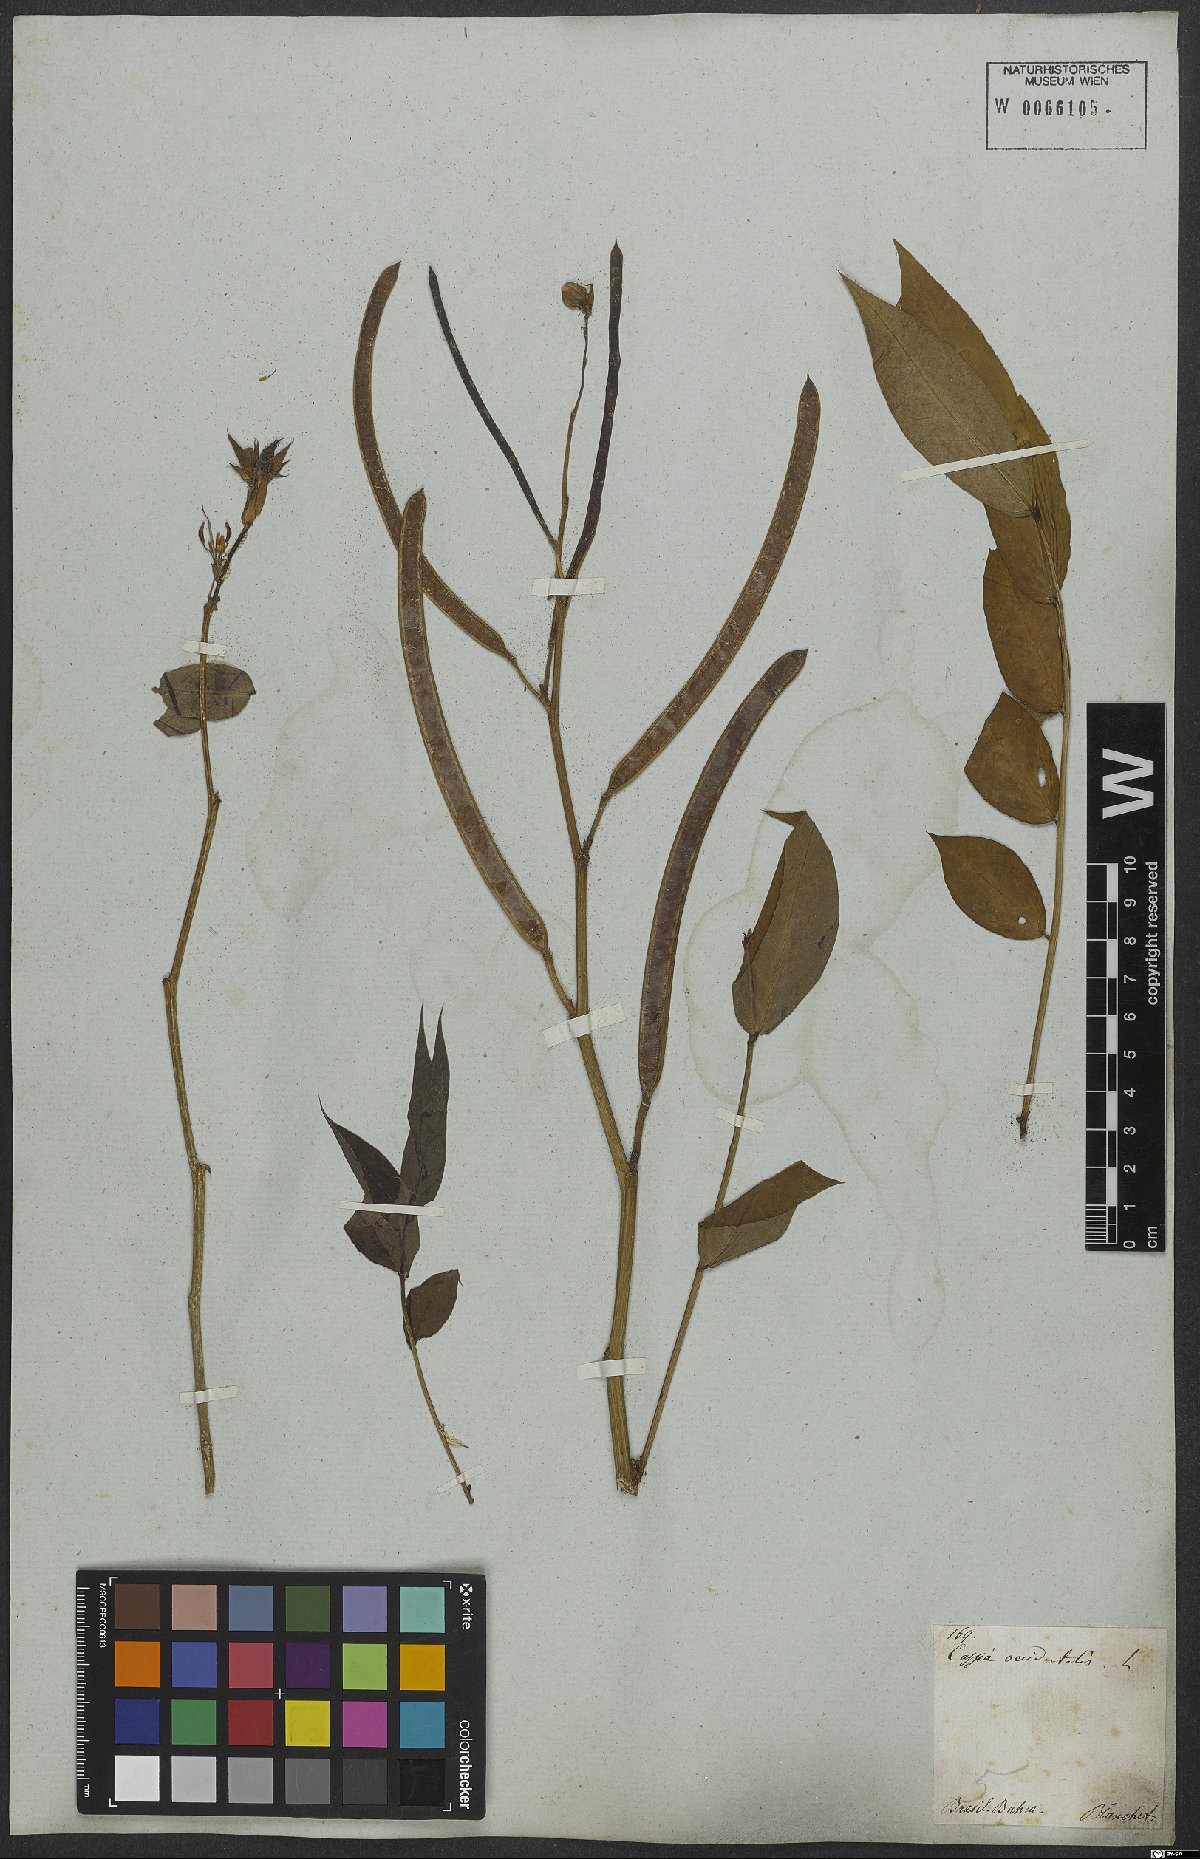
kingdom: Plantae
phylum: Tracheophyta
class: Magnoliopsida
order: Fabales
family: Fabaceae
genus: Senna
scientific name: Senna occidentalis
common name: Septicweed
